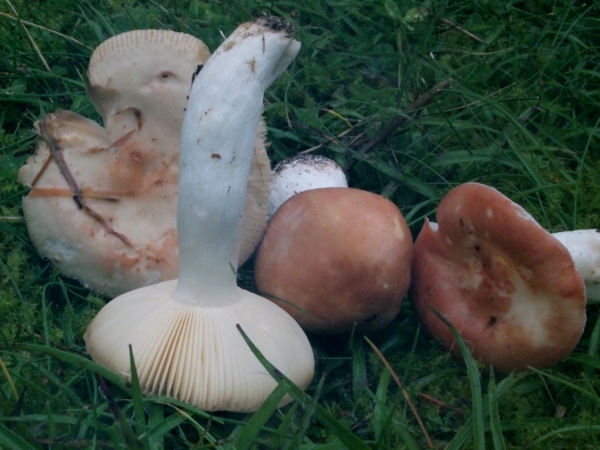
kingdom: Fungi
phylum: Basidiomycota
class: Agaricomycetes
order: Russulales
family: Russulaceae
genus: Russula
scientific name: Russula
